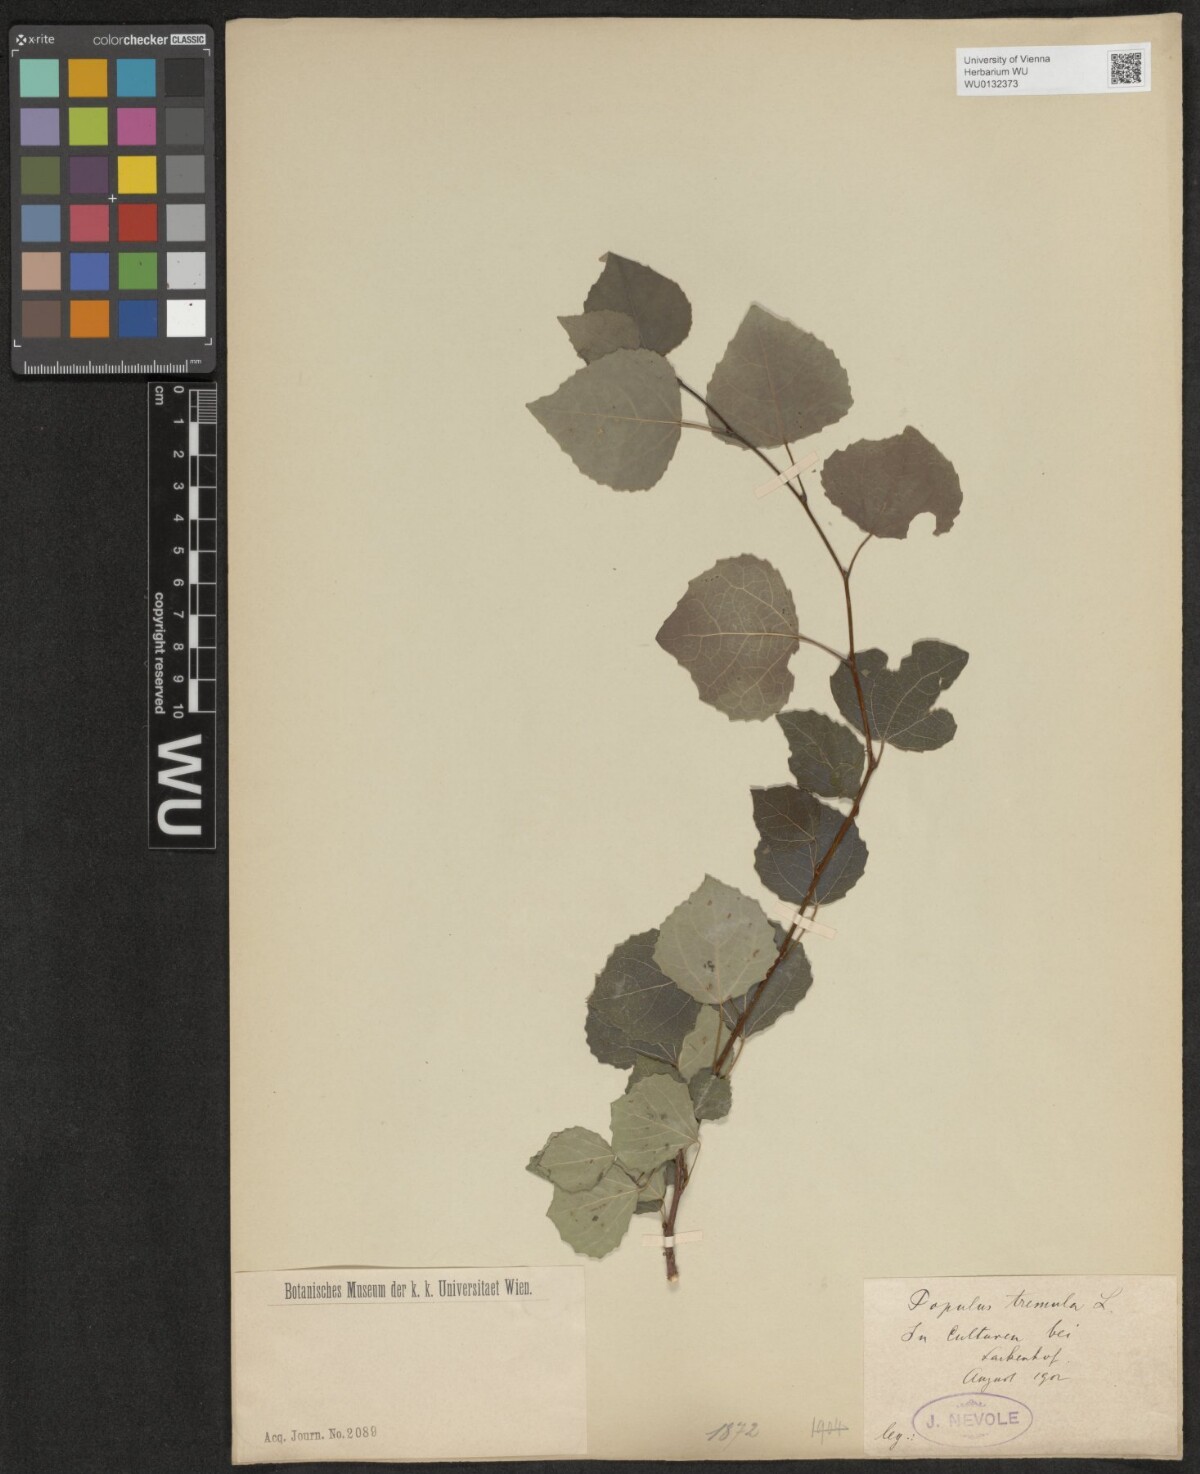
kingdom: Plantae
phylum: Tracheophyta
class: Magnoliopsida
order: Malpighiales
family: Salicaceae
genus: Populus
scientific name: Populus tremula
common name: European aspen
